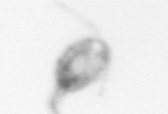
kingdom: Animalia
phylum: Arthropoda
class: Copepoda
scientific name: Copepoda
